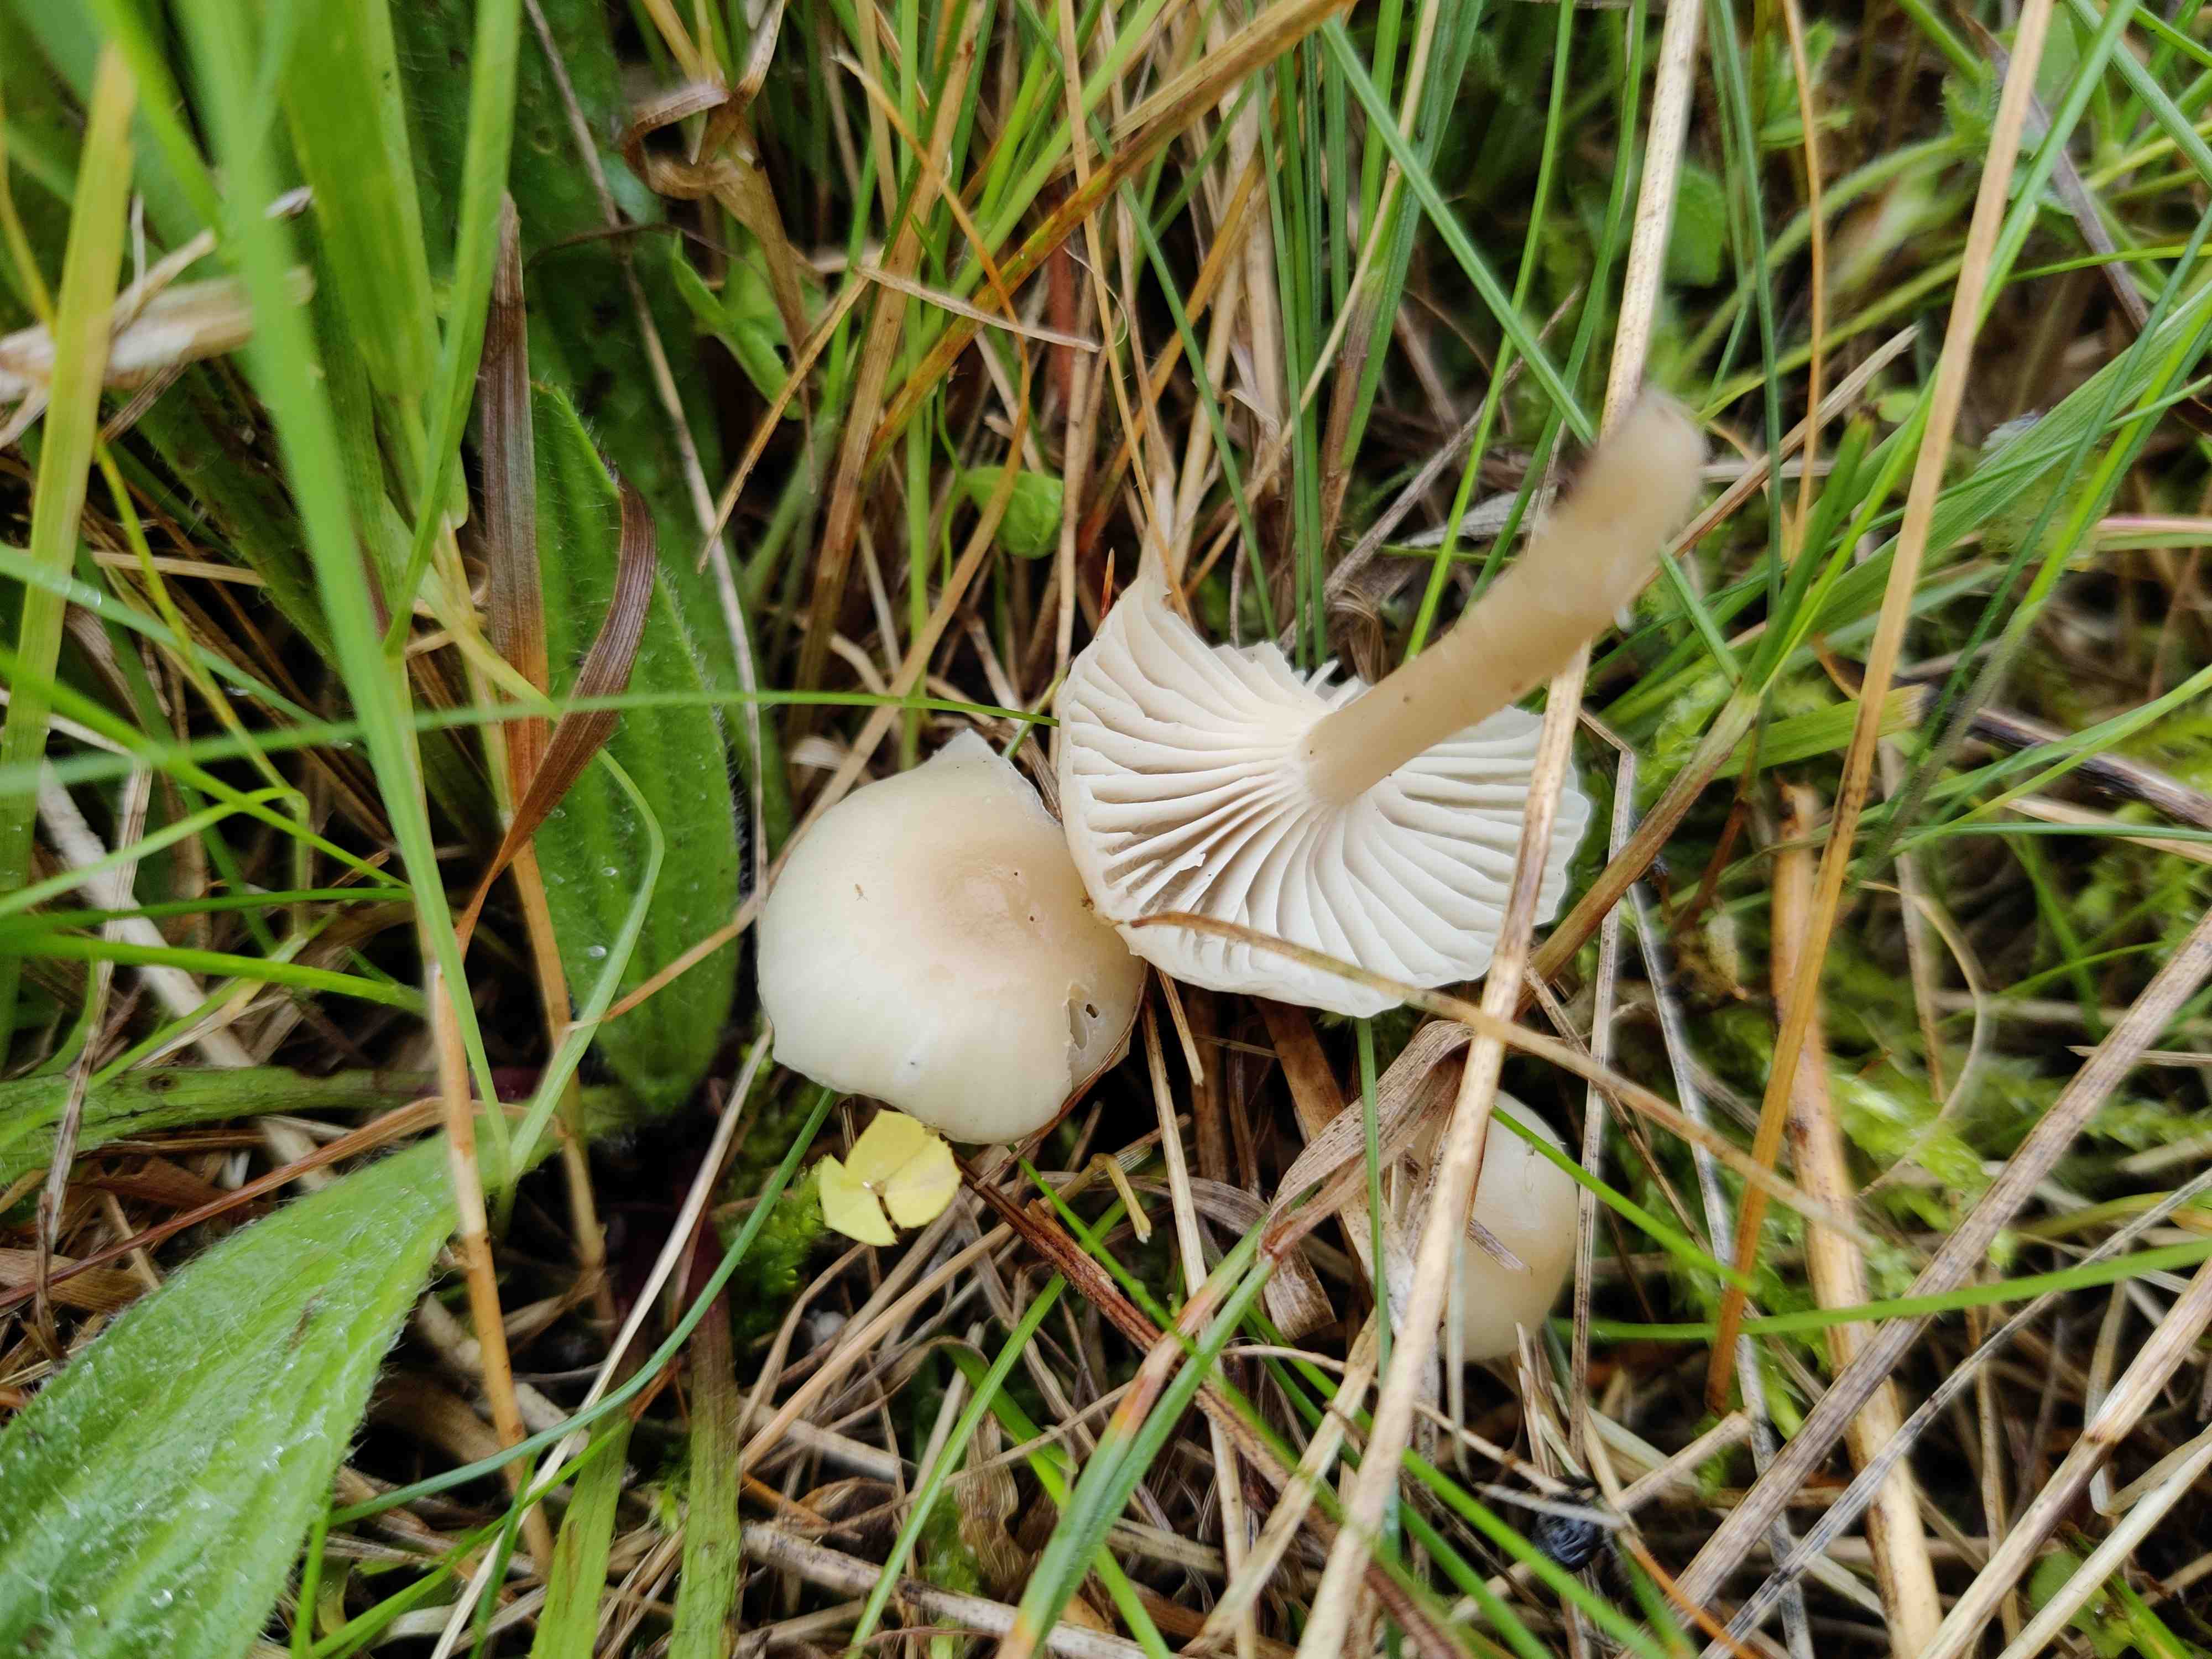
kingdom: Fungi
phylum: Basidiomycota
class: Agaricomycetes
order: Agaricales
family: Hygrophoraceae
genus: Cuphophyllus
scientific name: Cuphophyllus
